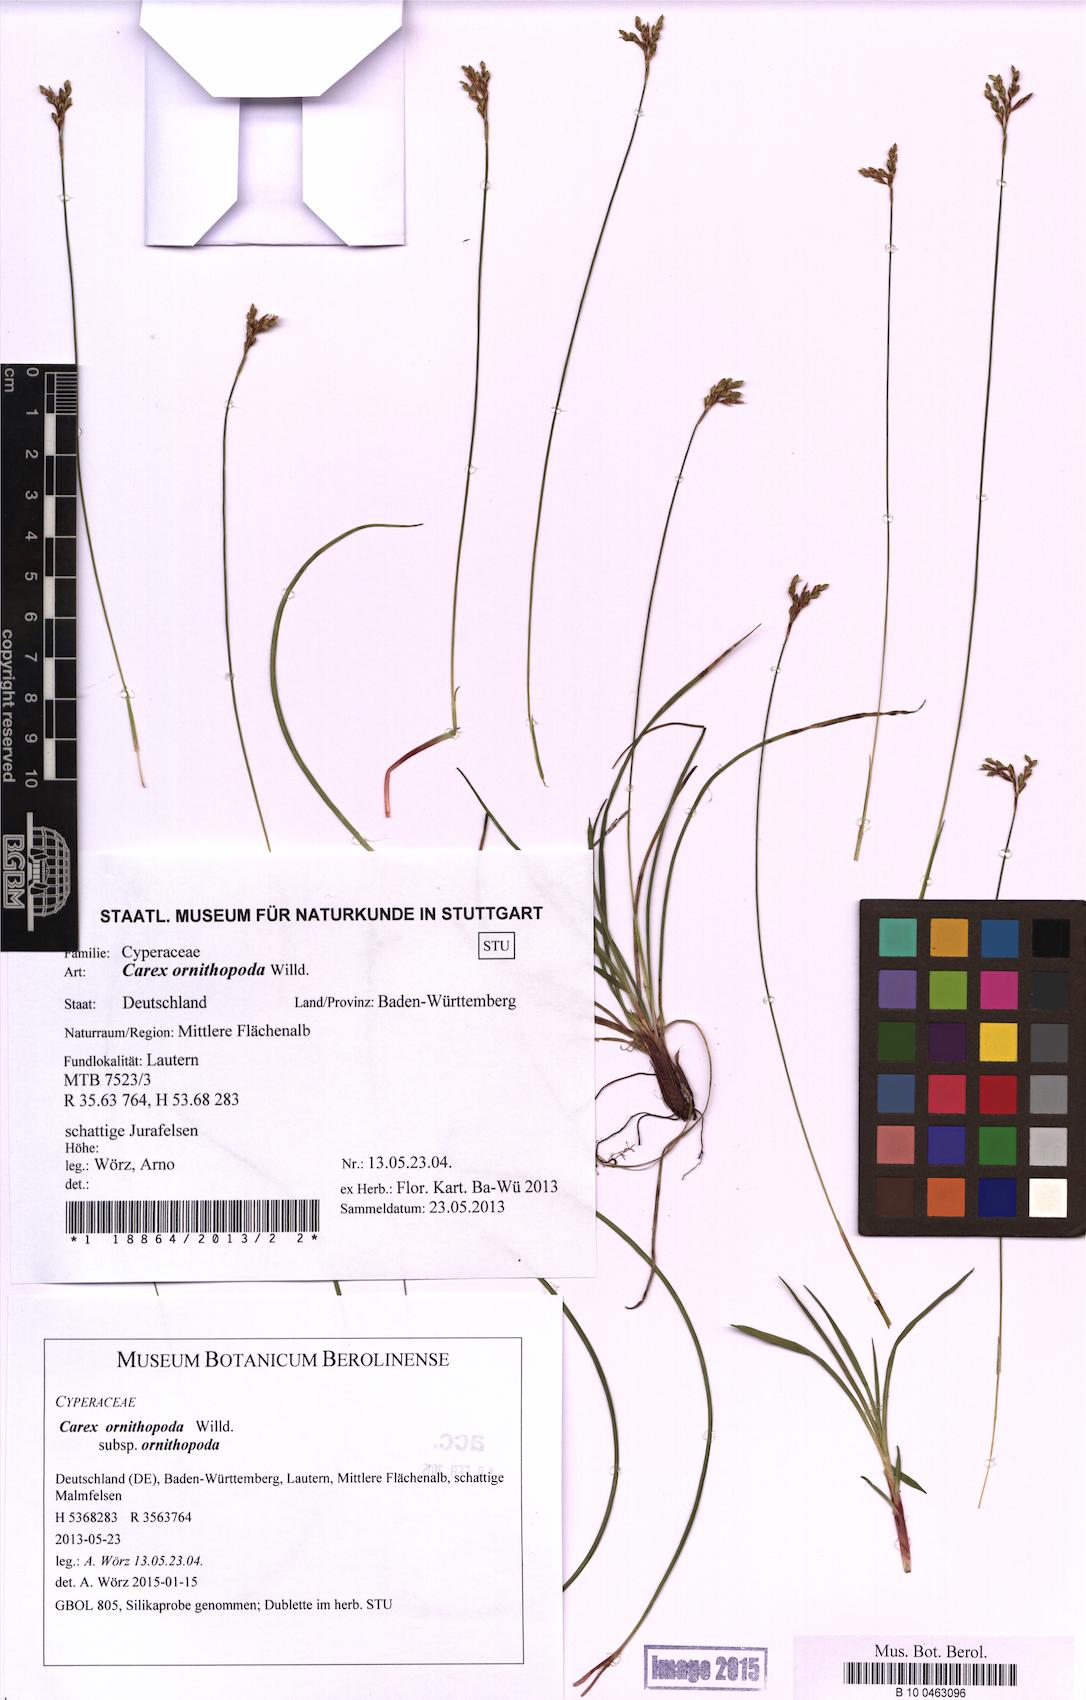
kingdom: Plantae
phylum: Tracheophyta
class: Liliopsida
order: Poales
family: Cyperaceae
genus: Carex
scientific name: Carex ornithopoda
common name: Bird's-foot sedge
